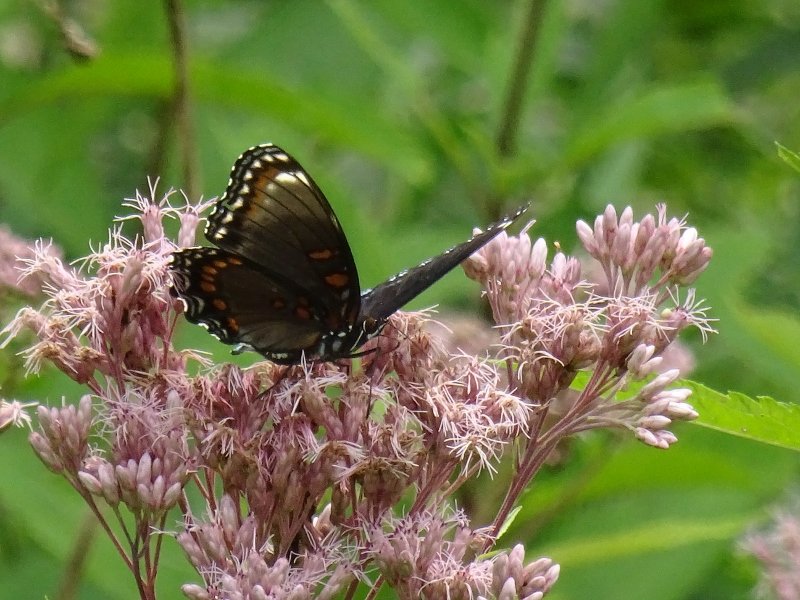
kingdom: Animalia
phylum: Arthropoda
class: Insecta
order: Lepidoptera
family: Nymphalidae
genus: Limenitis
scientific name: Limenitis astyanax
